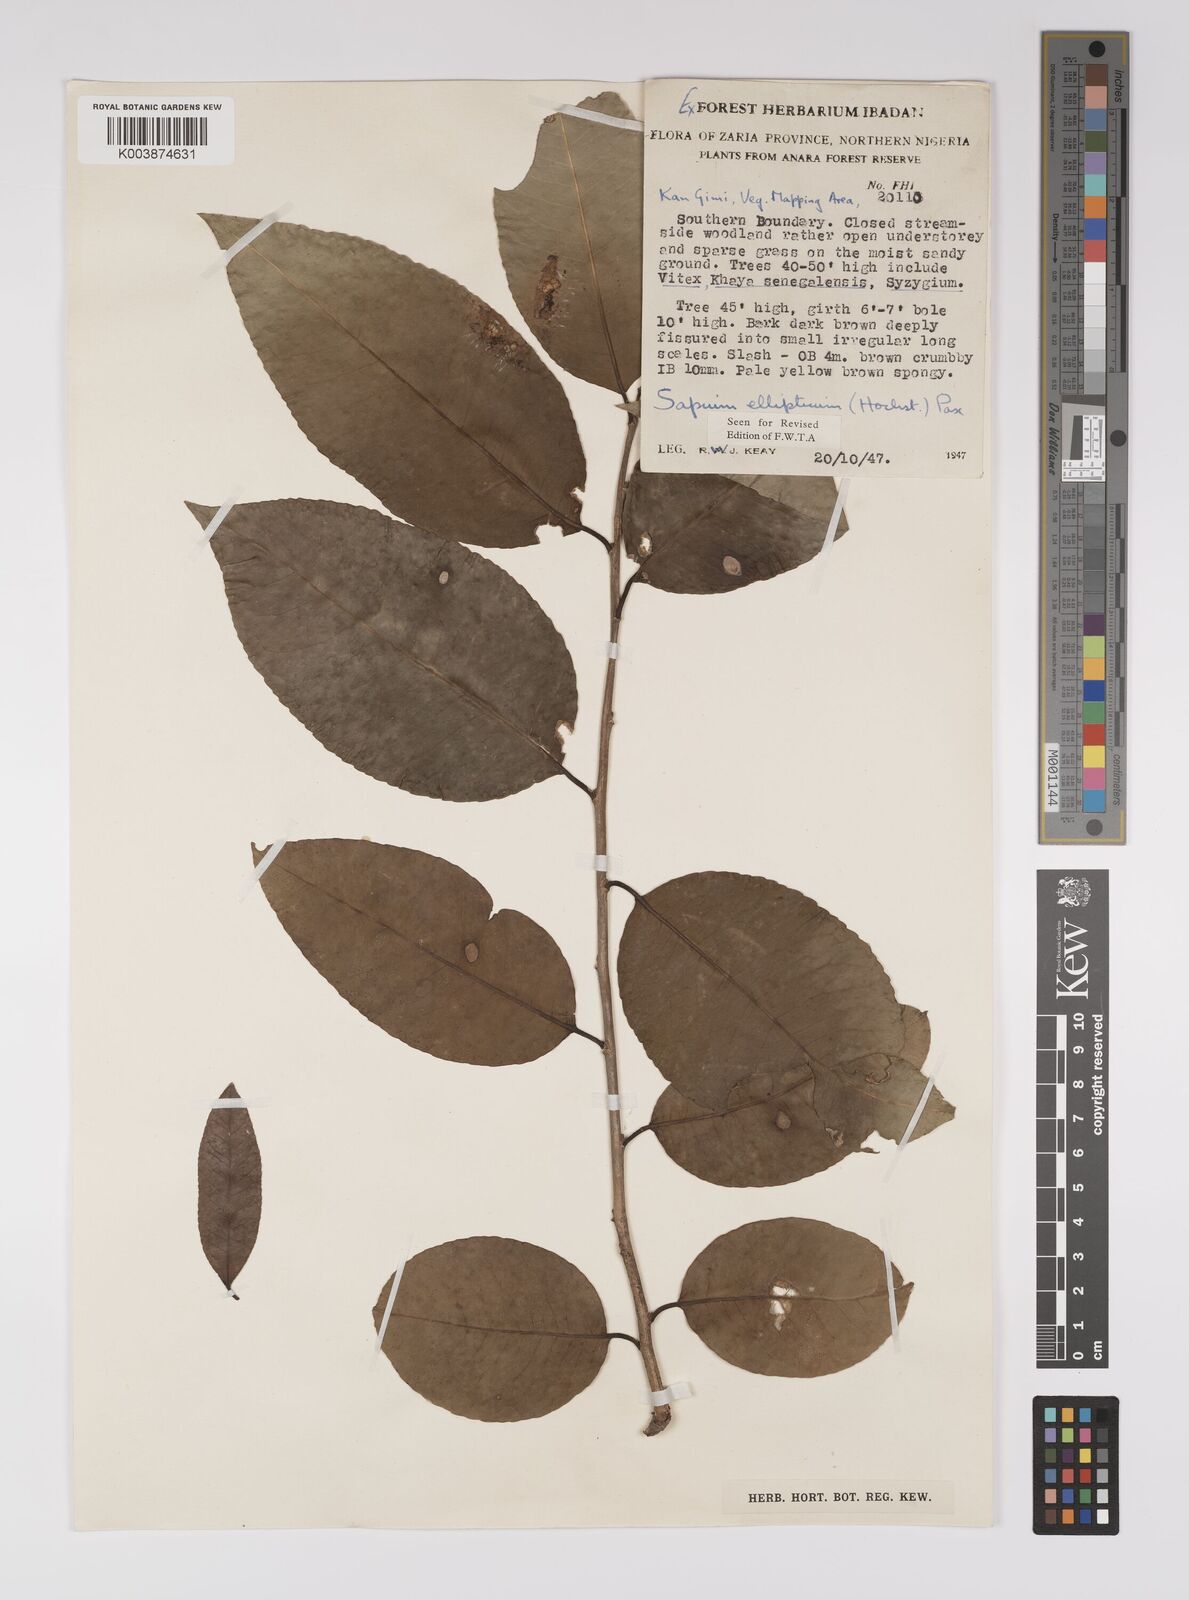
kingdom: Plantae
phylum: Tracheophyta
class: Magnoliopsida
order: Malpighiales
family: Euphorbiaceae
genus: Shirakiopsis
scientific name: Shirakiopsis elliptica
